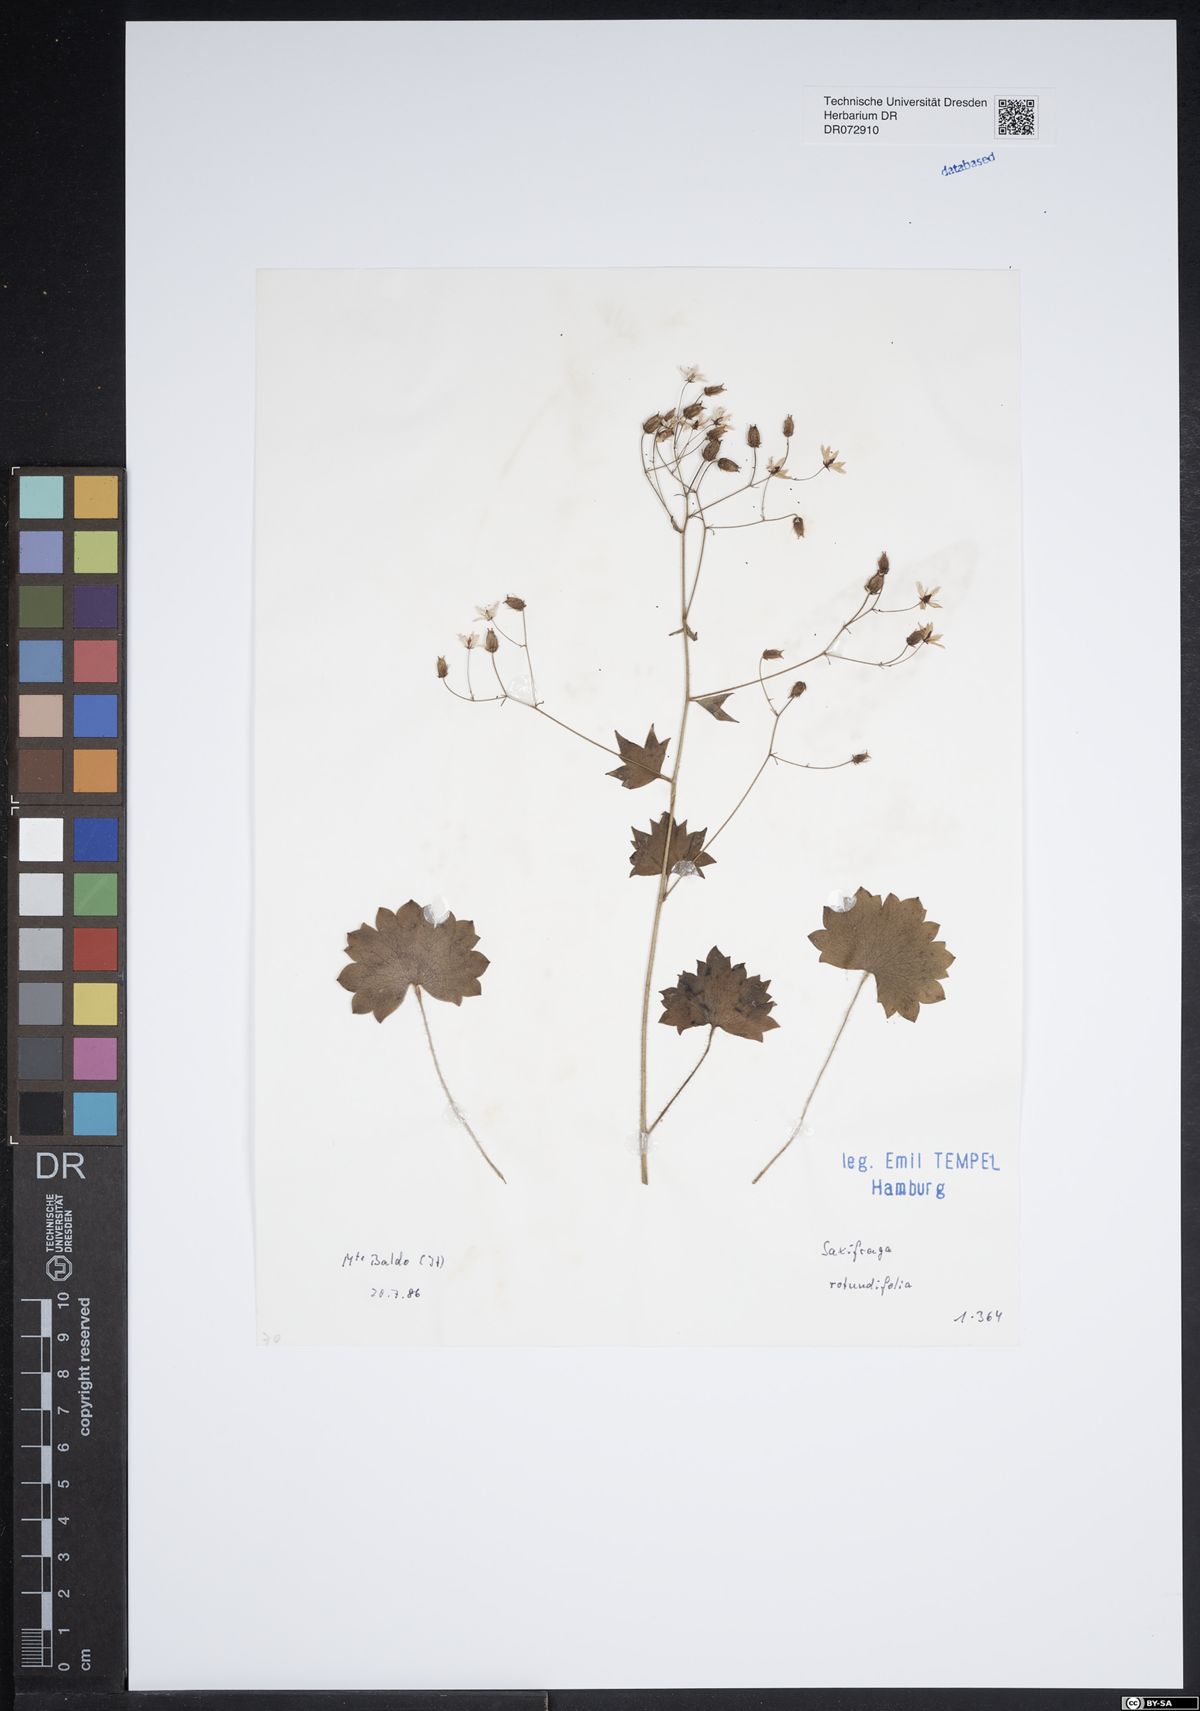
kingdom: Plantae
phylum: Tracheophyta
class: Magnoliopsida
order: Saxifragales
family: Saxifragaceae
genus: Saxifraga
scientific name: Saxifraga rotundifolia
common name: Round-leaved saxifrage
